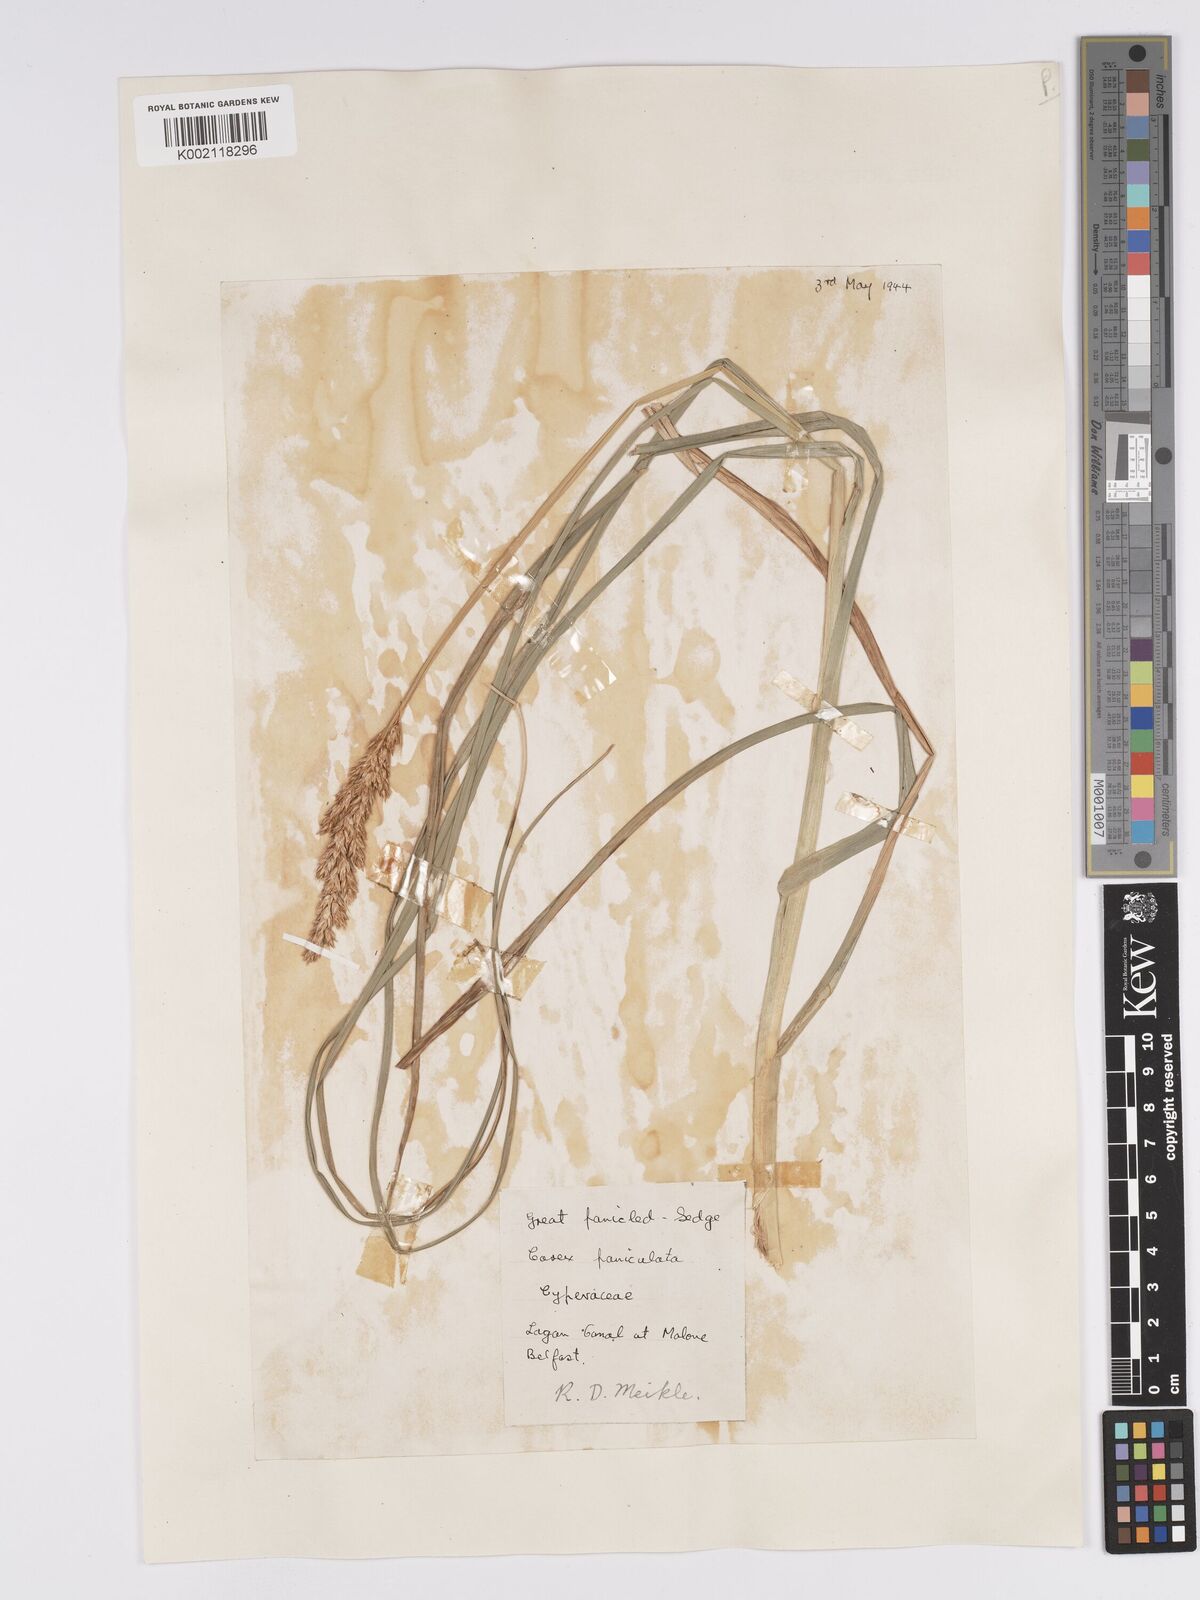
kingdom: Plantae
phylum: Tracheophyta
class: Liliopsida
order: Poales
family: Cyperaceae
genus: Carex
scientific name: Carex paniculata
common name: Greater tussock-sedge
